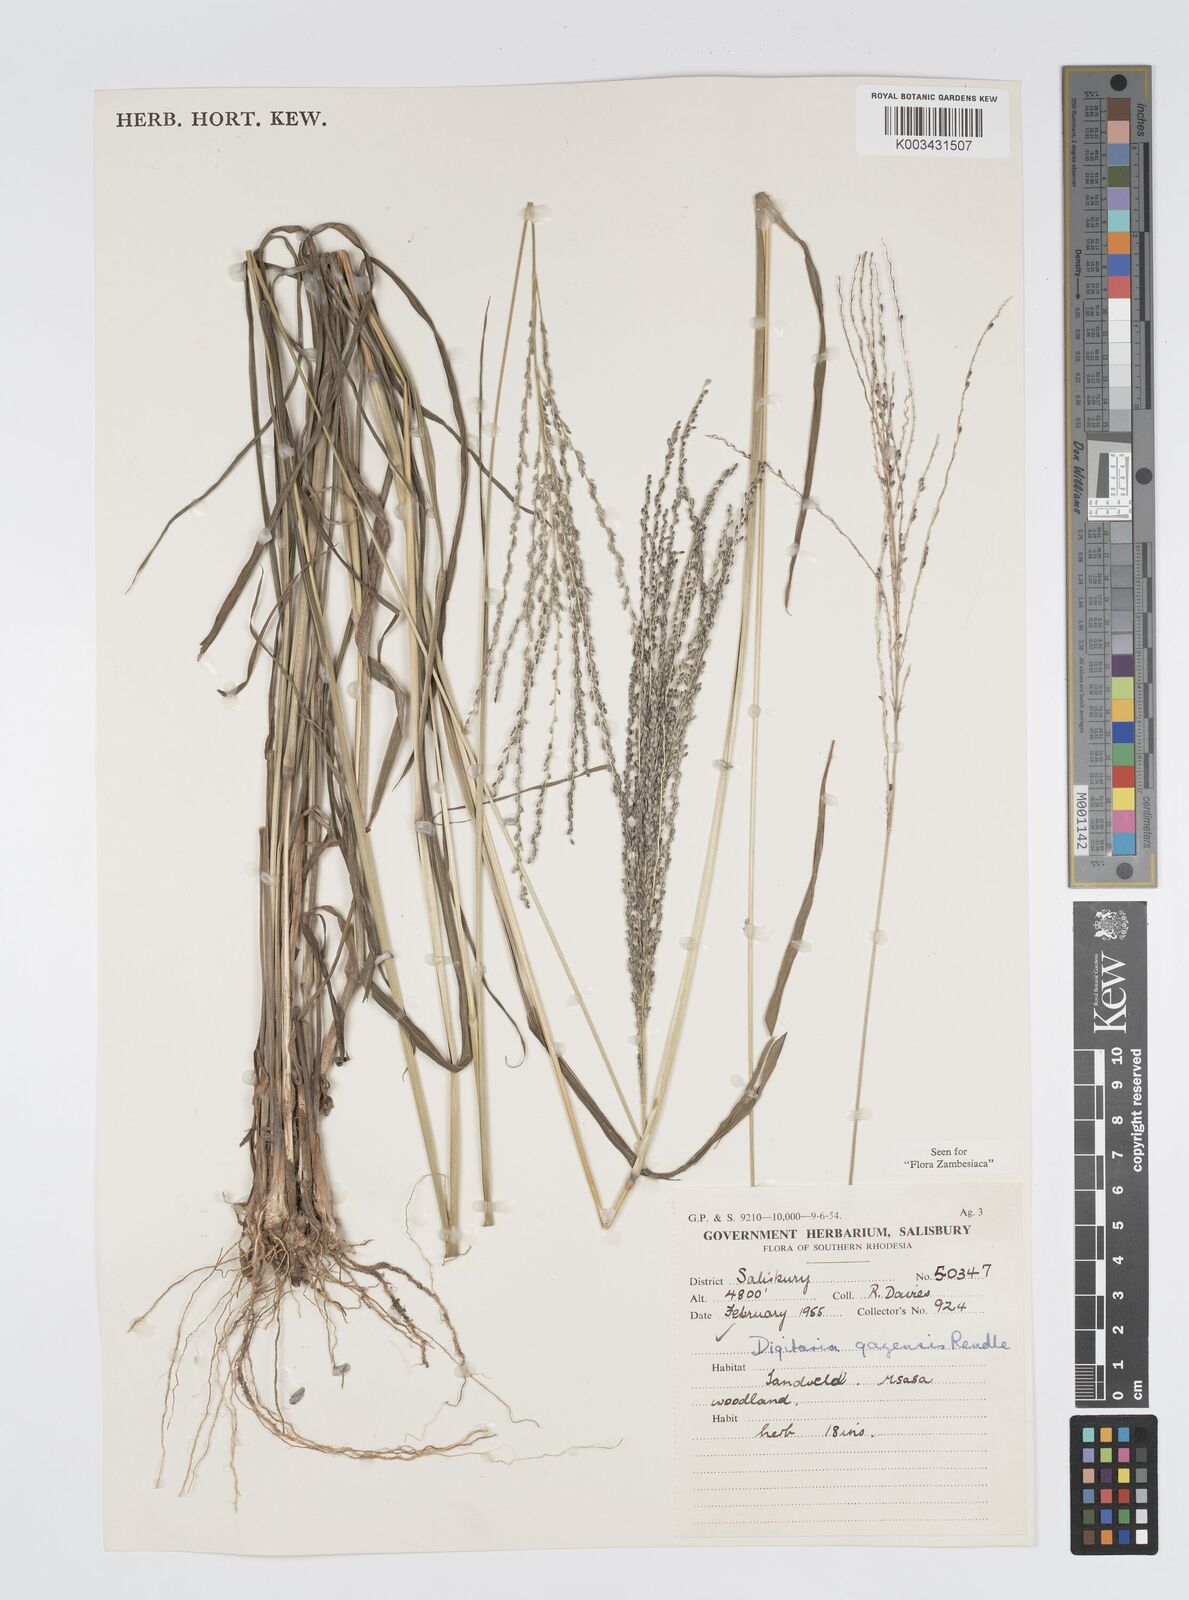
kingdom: Plantae
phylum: Tracheophyta
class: Liliopsida
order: Poales
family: Poaceae
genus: Digitaria
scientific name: Digitaria gazensis
